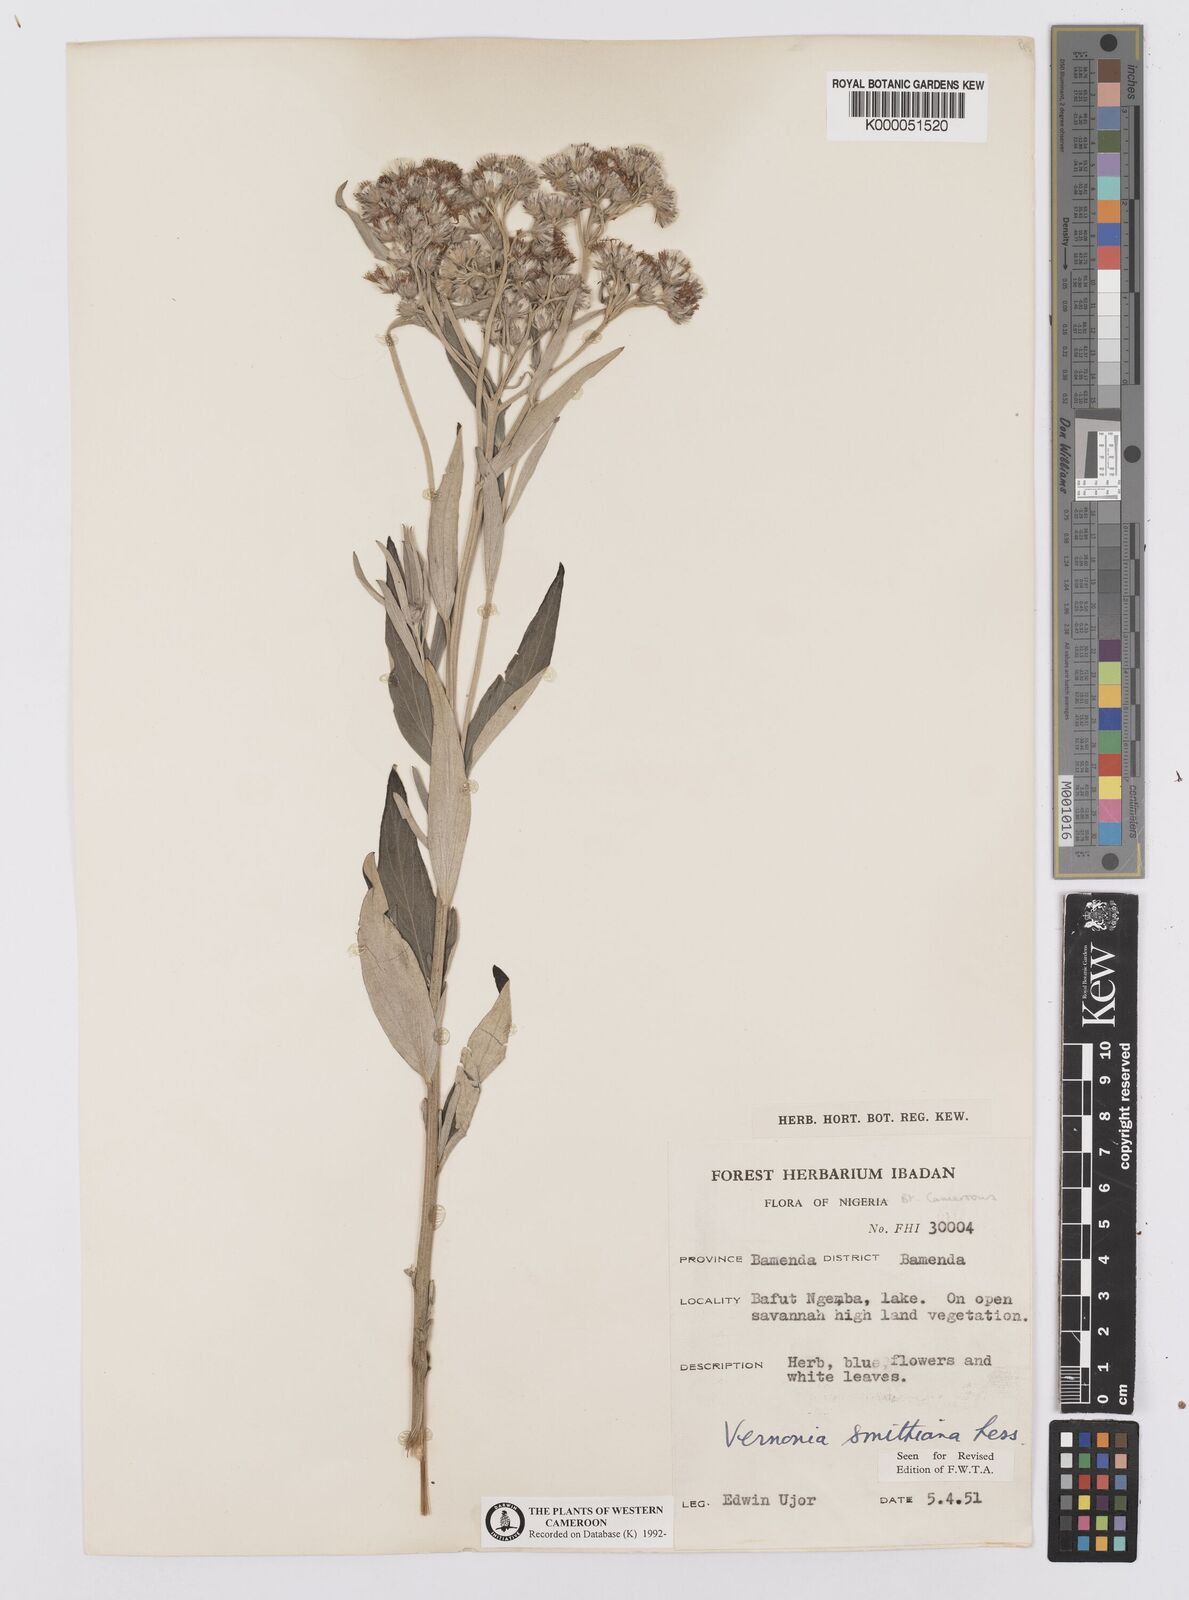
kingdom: Plantae
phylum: Tracheophyta
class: Magnoliopsida
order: Asterales
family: Asteraceae
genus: Hilliardiella
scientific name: Hilliardiella smithiana
